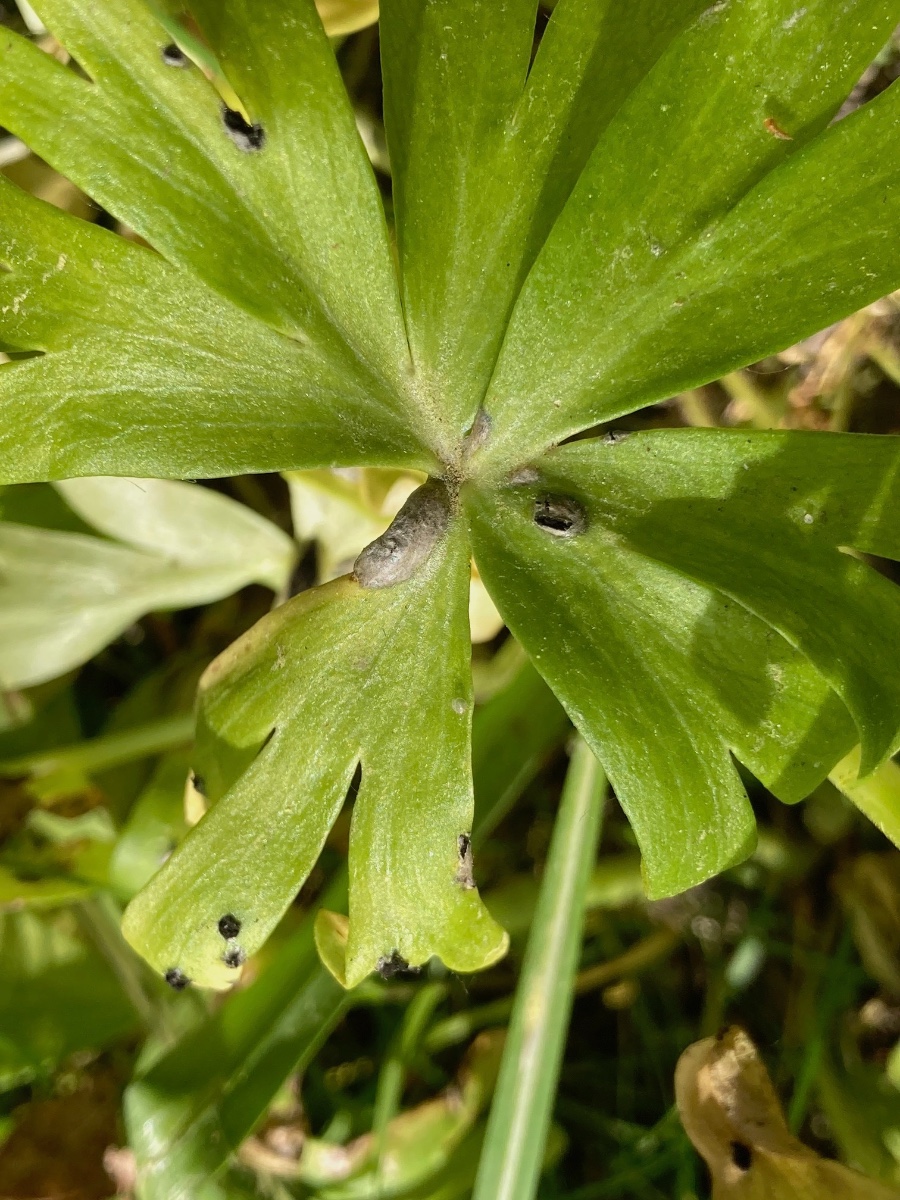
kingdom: Fungi
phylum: Basidiomycota
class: Ustilaginomycetes
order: Urocystidales
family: Urocystidaceae
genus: Urocystis
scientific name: Urocystis eranthidis
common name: erantis-brand
